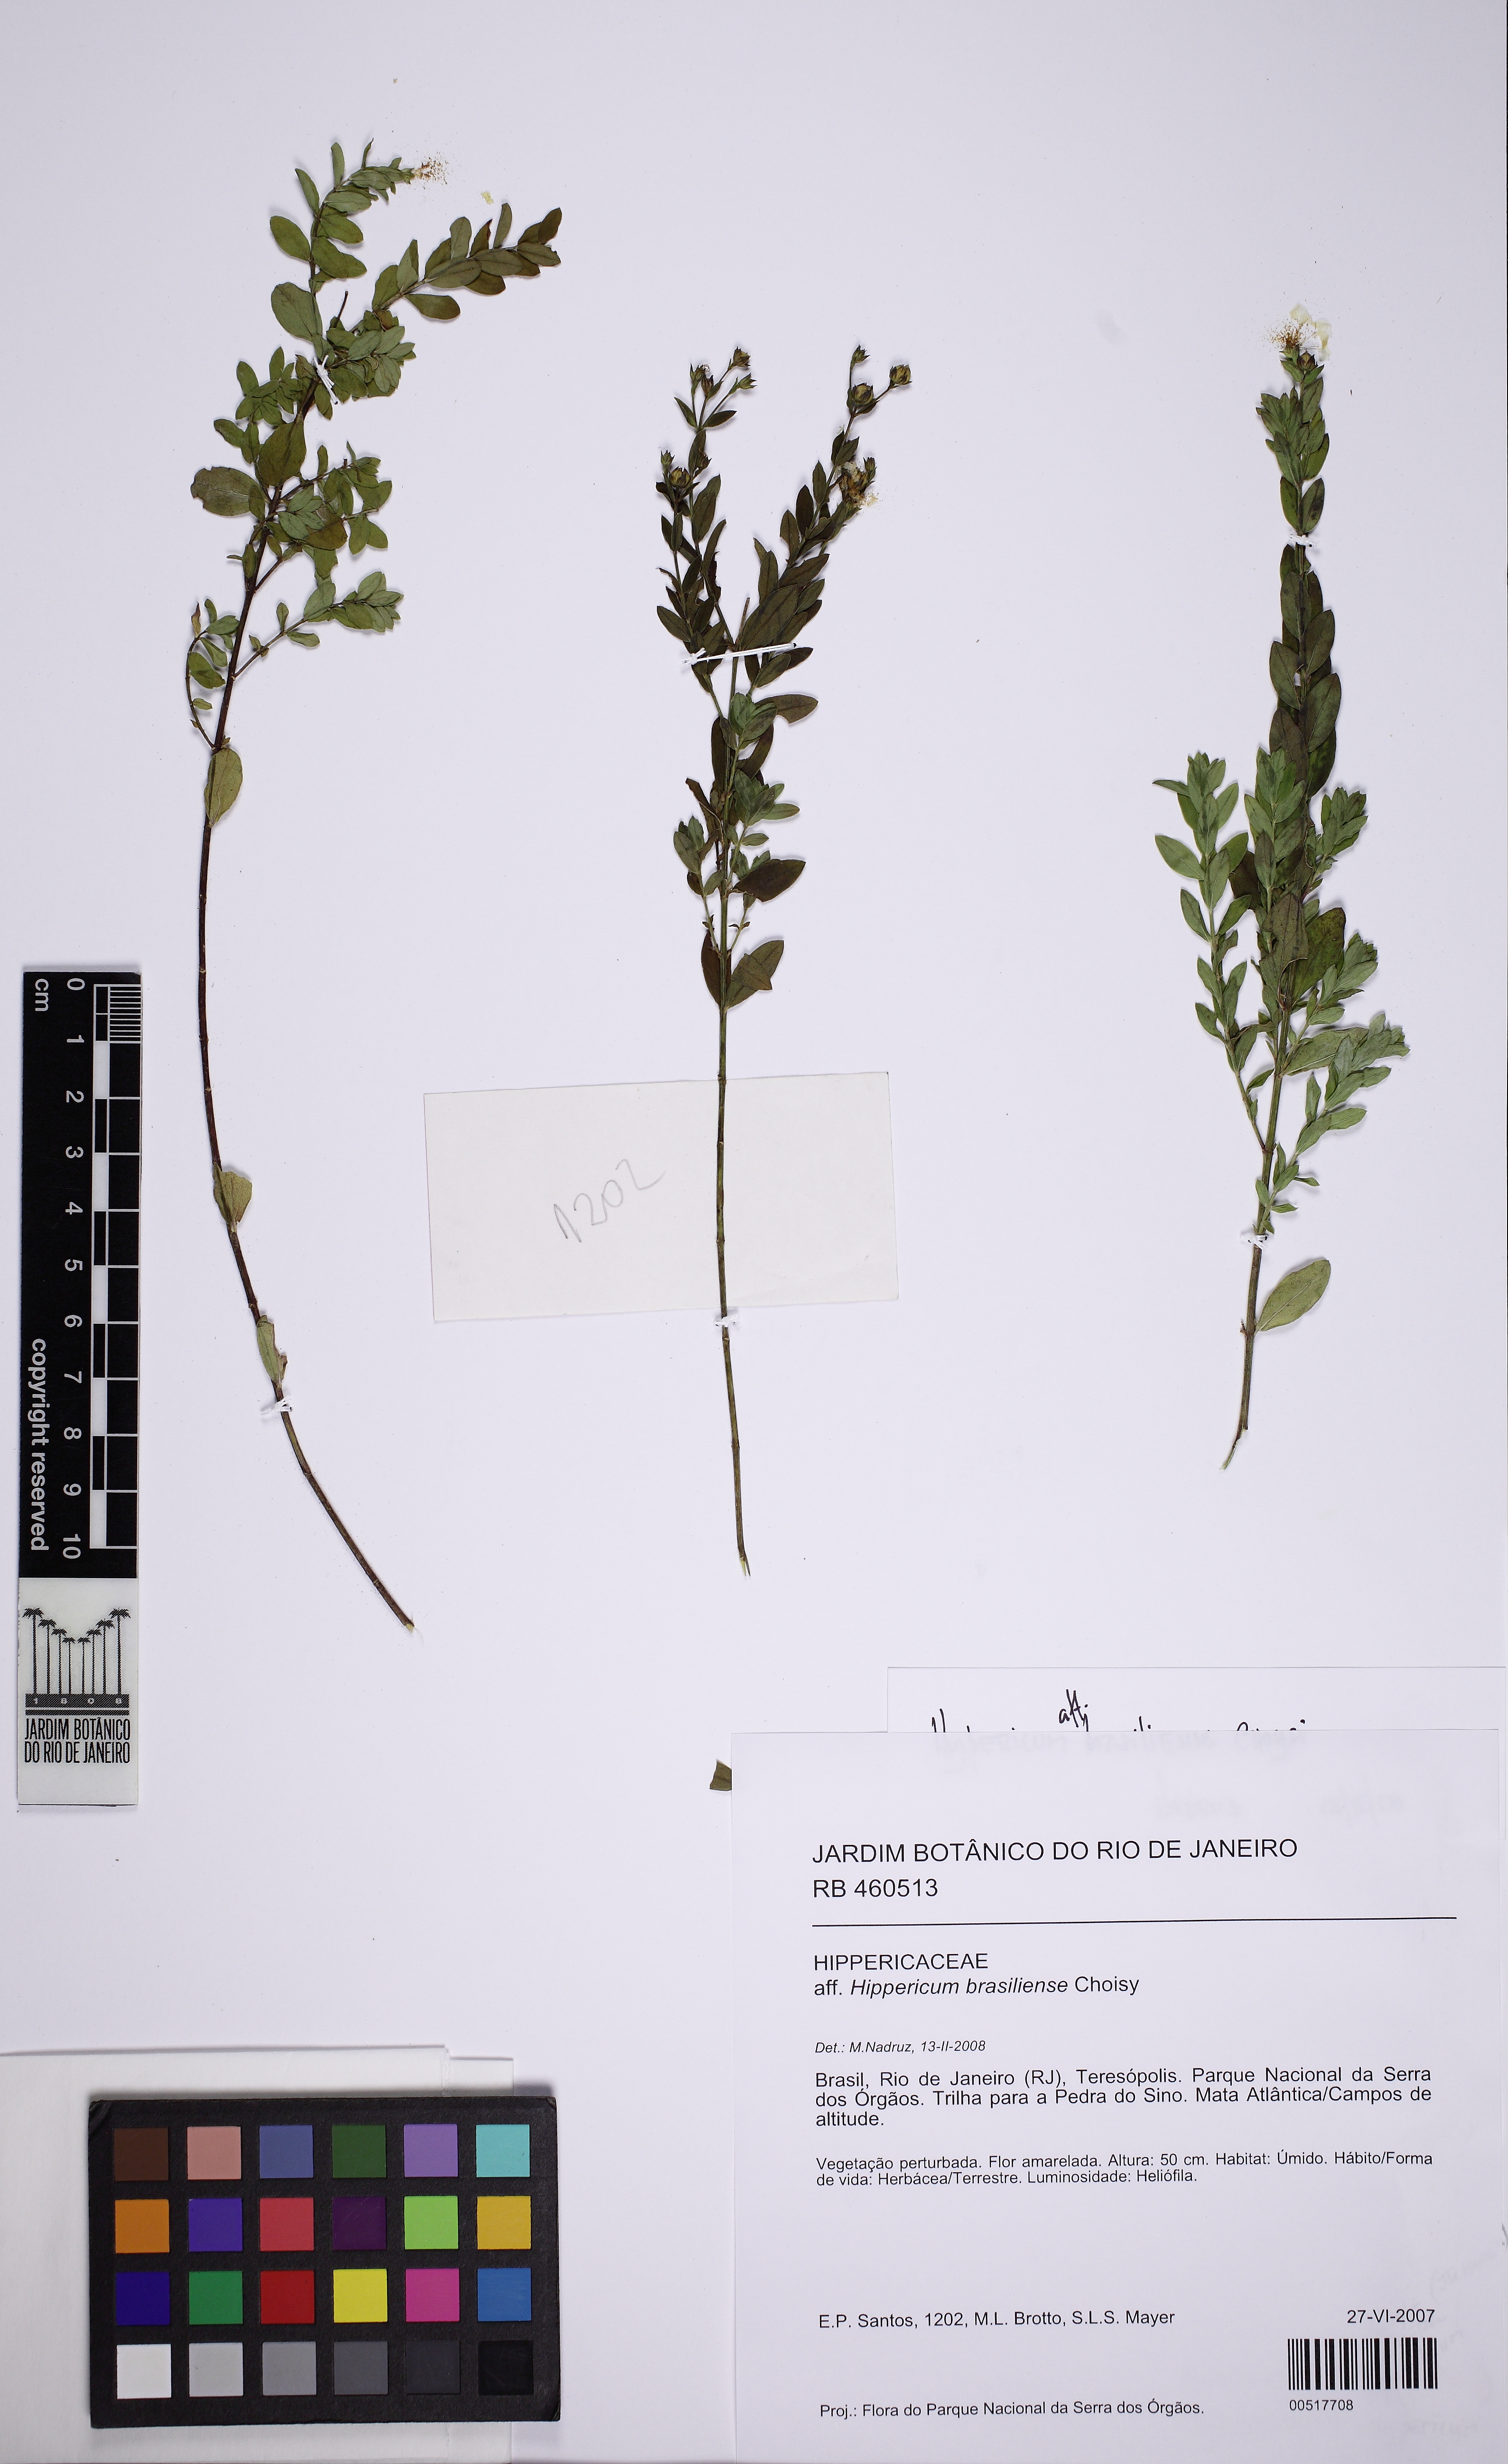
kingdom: Plantae
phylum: Tracheophyta
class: Magnoliopsida
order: Malpighiales
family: Linaceae
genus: Linum
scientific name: Linum organense
